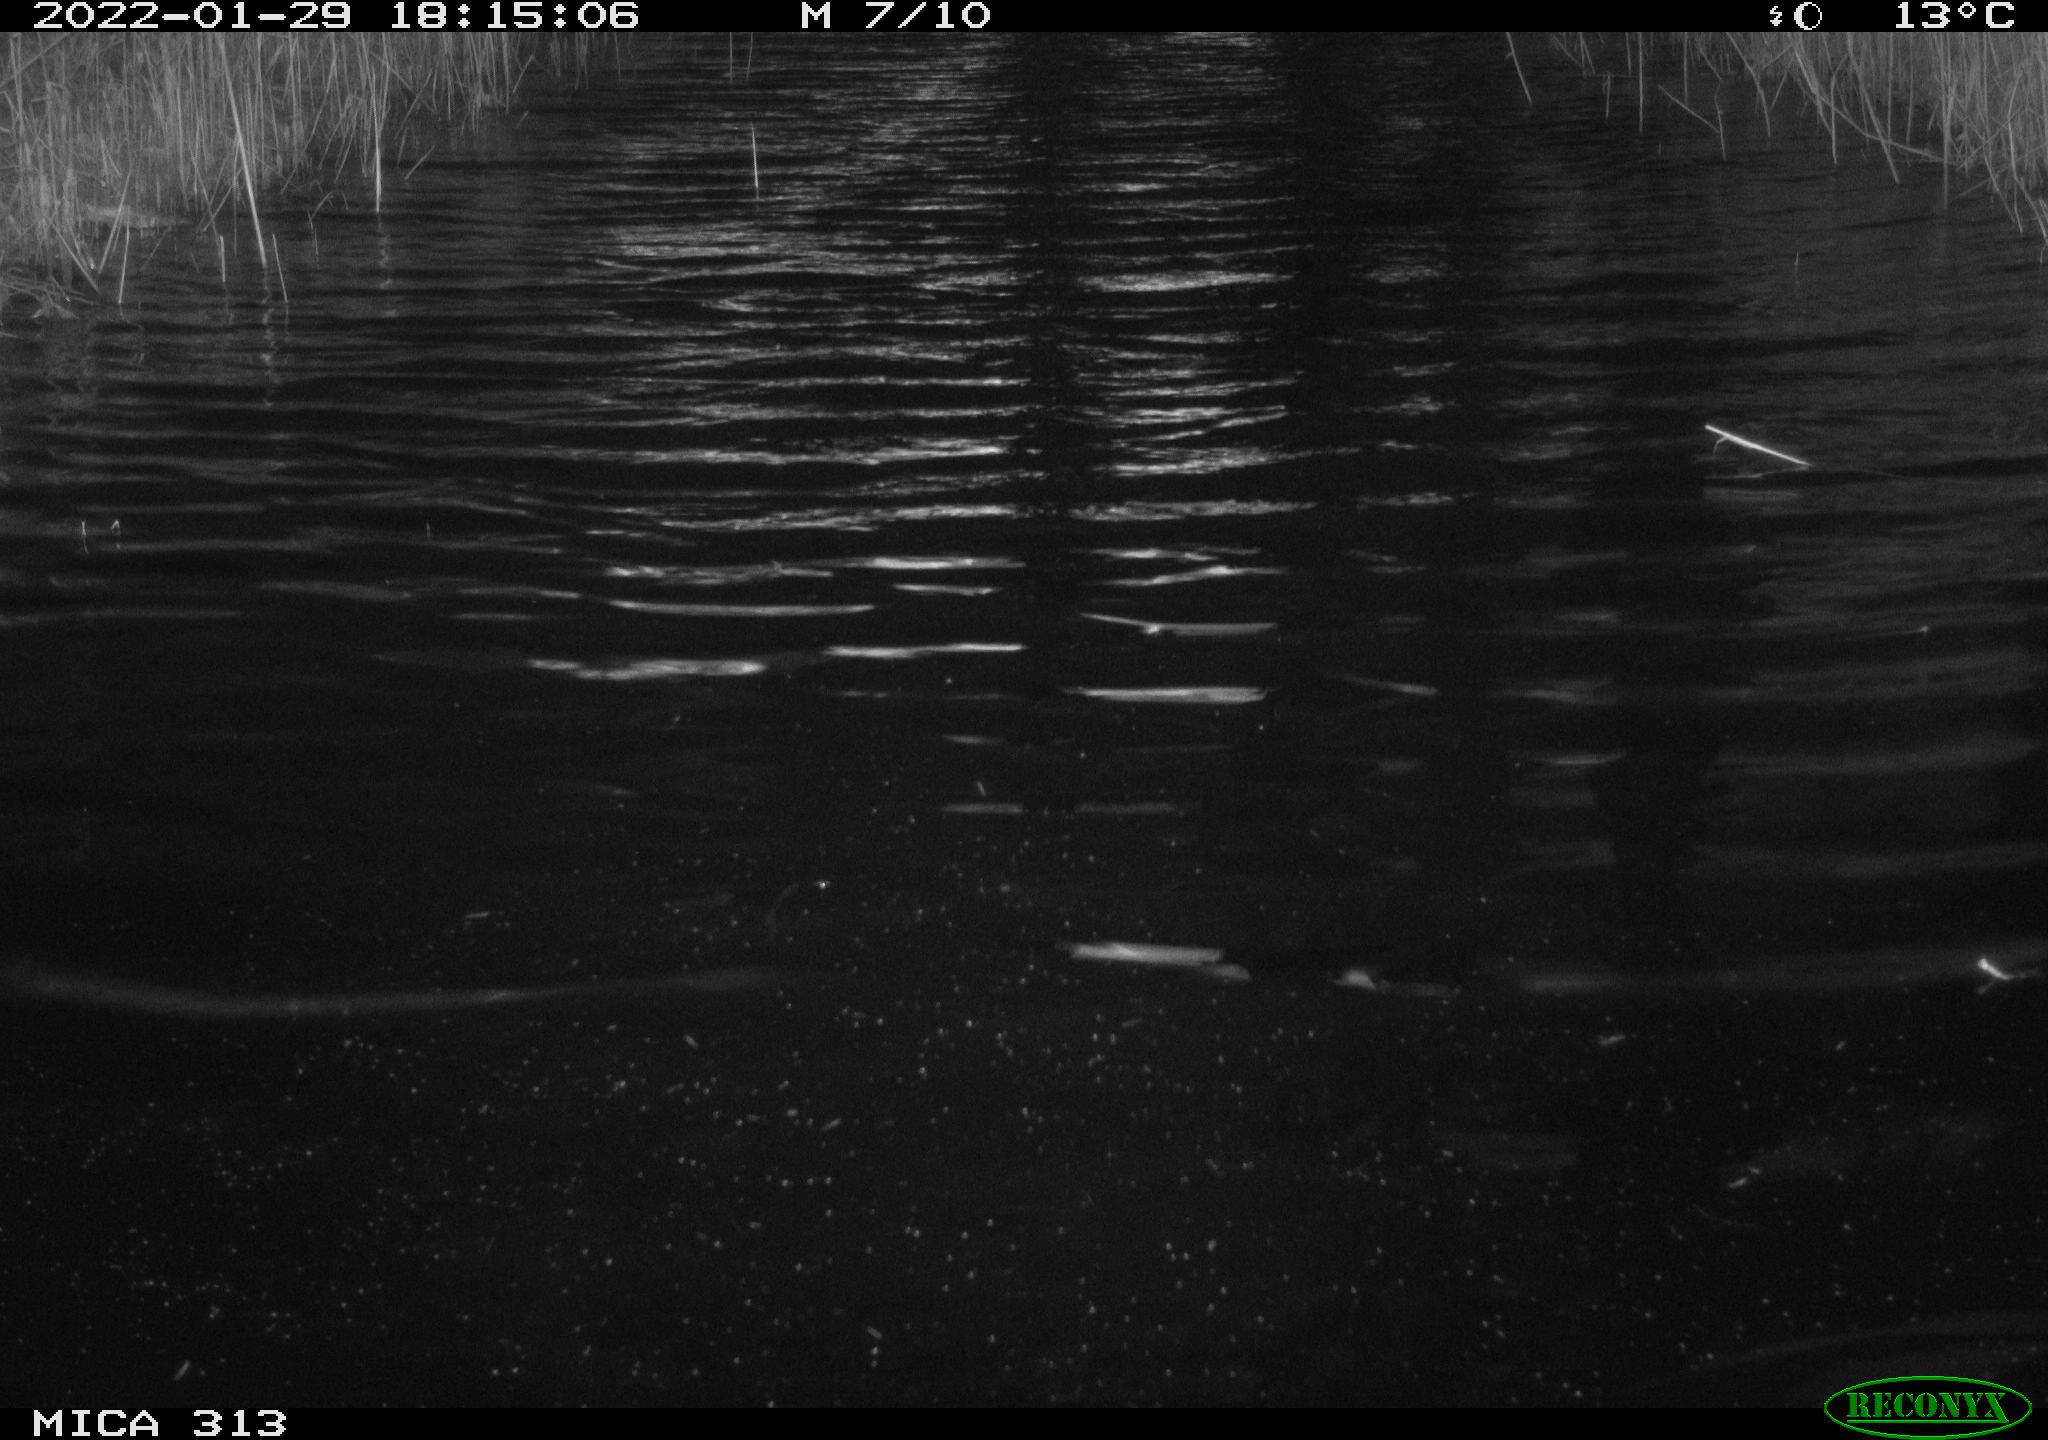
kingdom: Animalia
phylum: Chordata
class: Aves
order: Gruiformes
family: Rallidae
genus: Gallinula
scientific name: Gallinula chloropus
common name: Common moorhen
